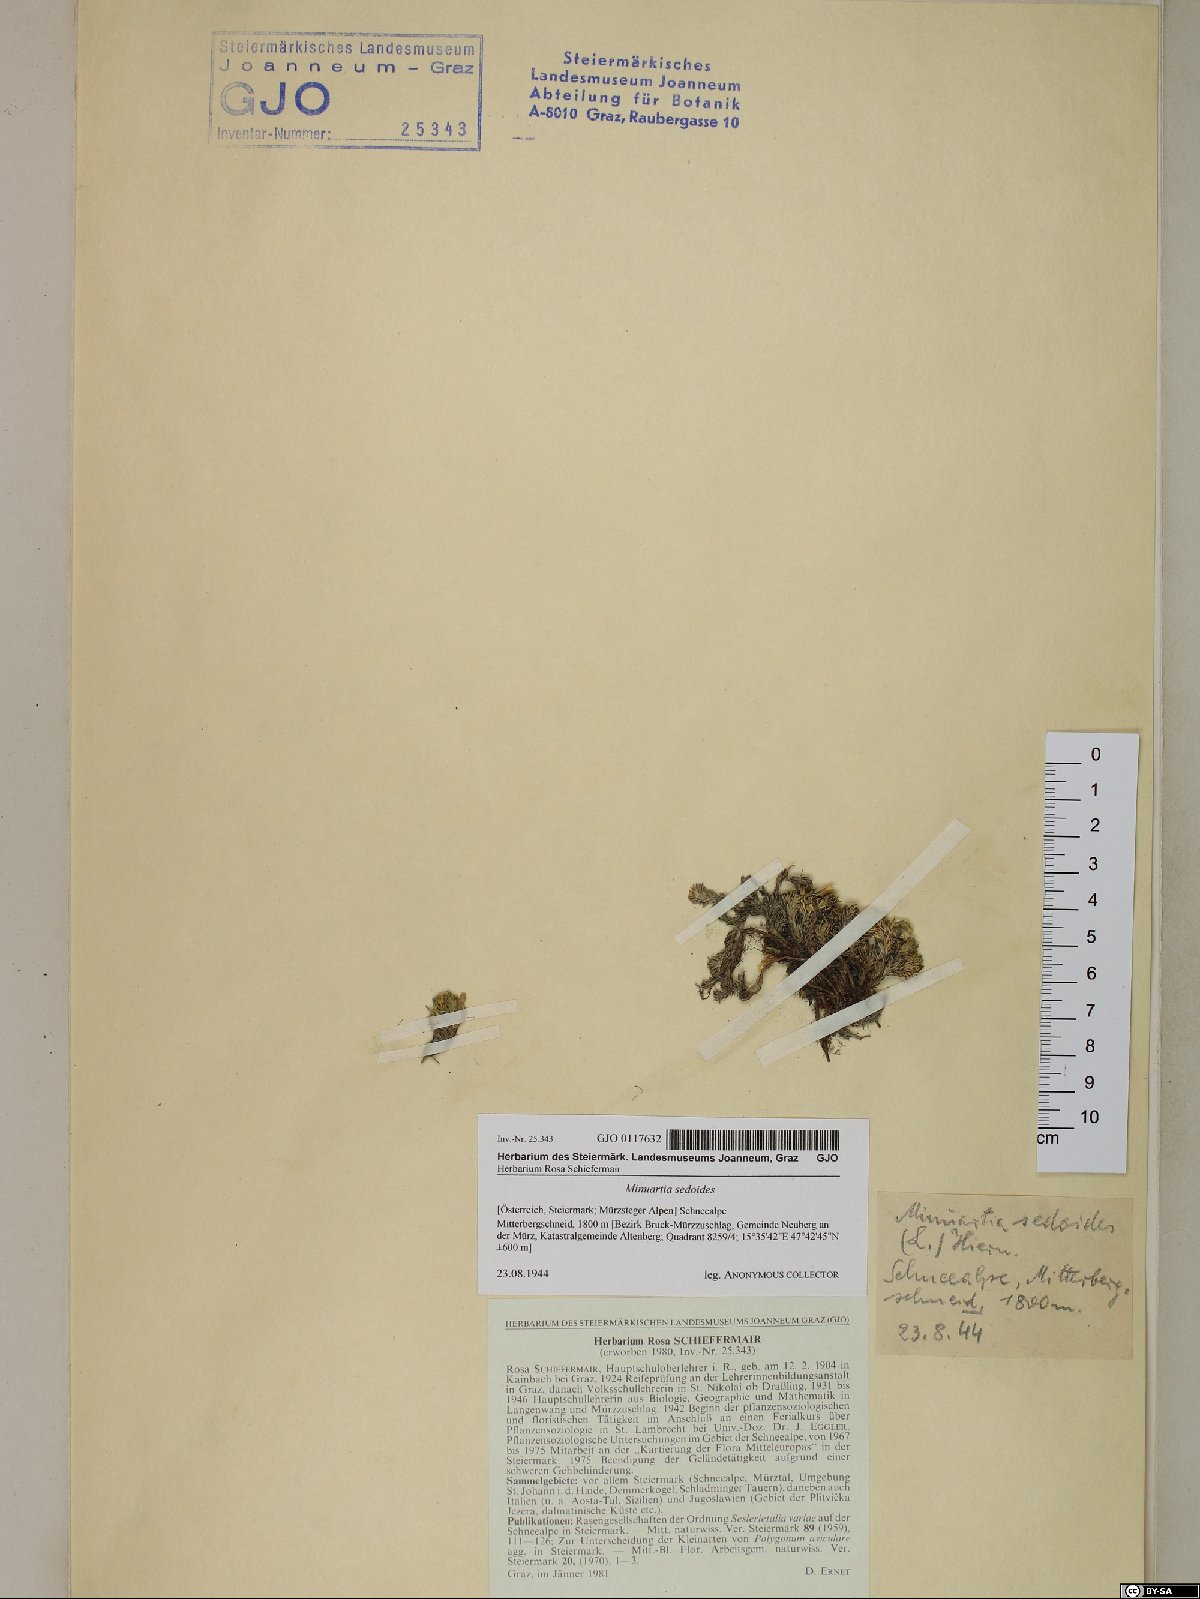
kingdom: Plantae
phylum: Tracheophyta
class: Magnoliopsida
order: Caryophyllales
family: Caryophyllaceae
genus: Cherleria
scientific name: Cherleria sedoides
